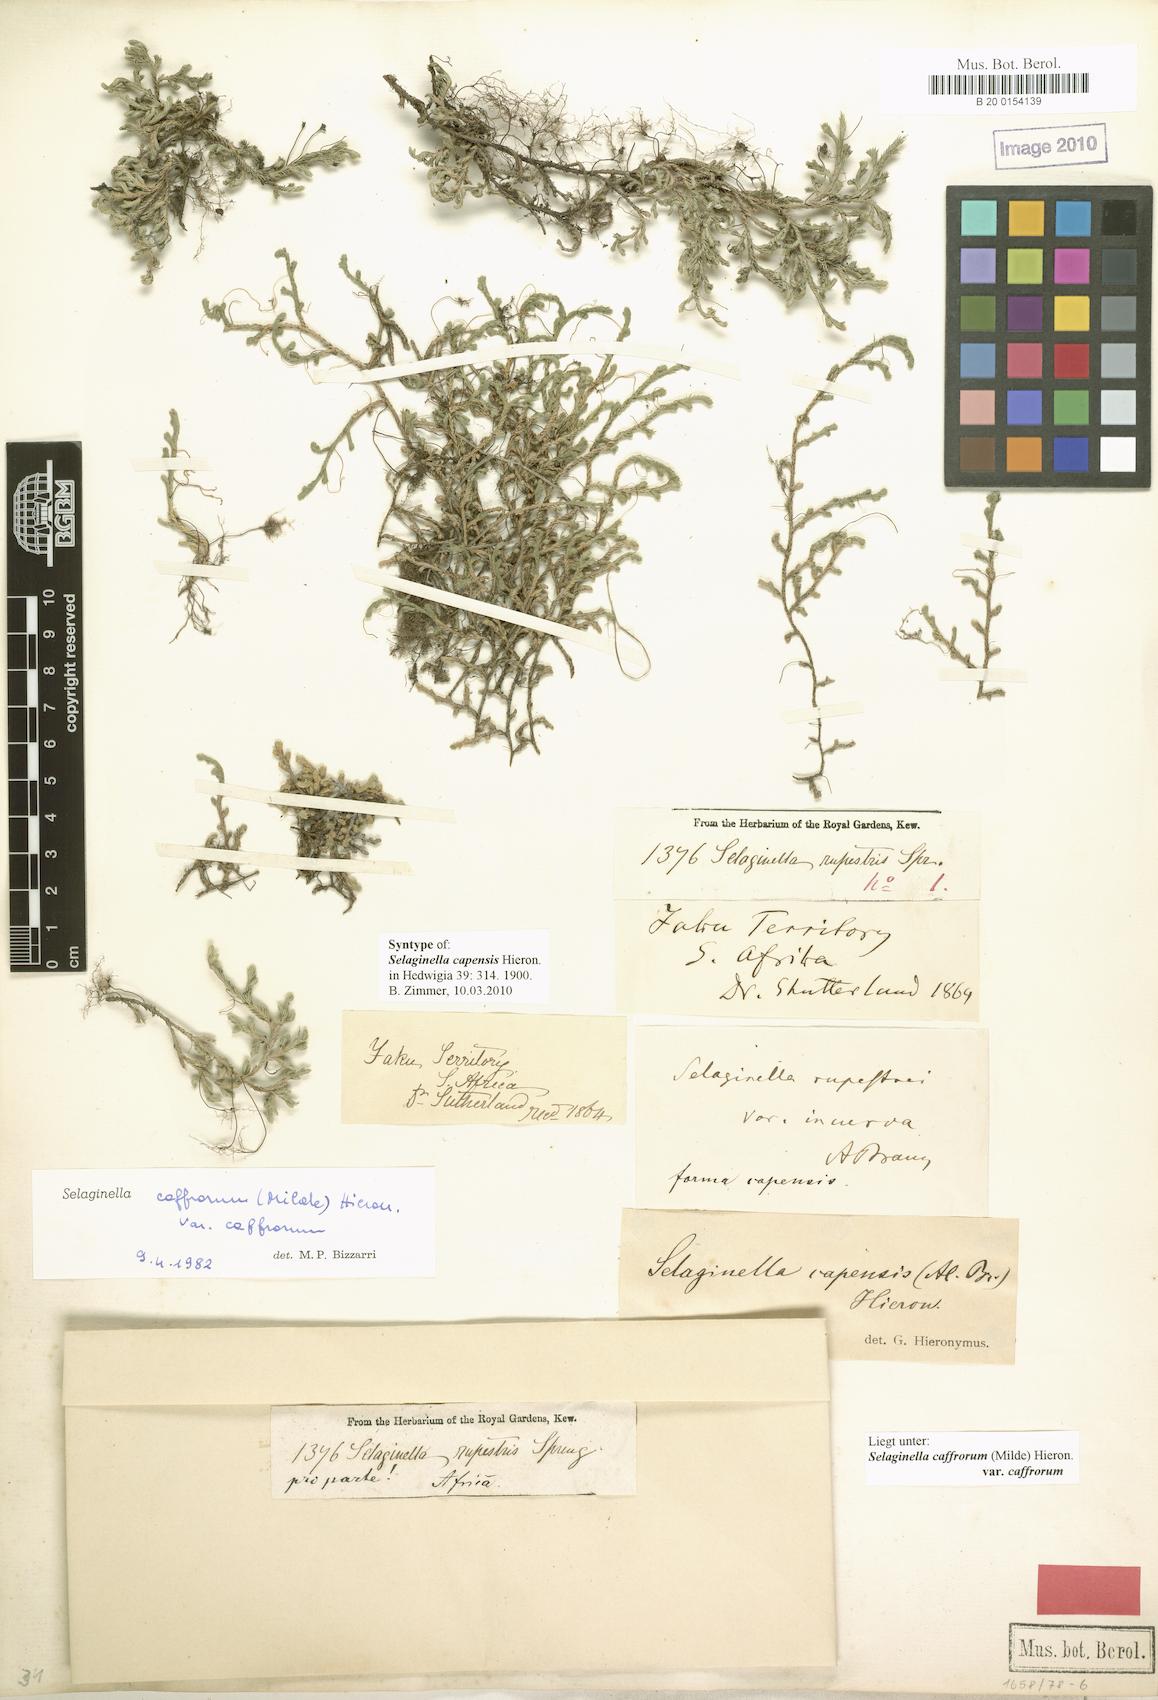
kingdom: Plantae
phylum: Tracheophyta
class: Lycopodiopsida
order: Selaginellales
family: Selaginellaceae
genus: Selaginella
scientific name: Selaginella caffrorum
